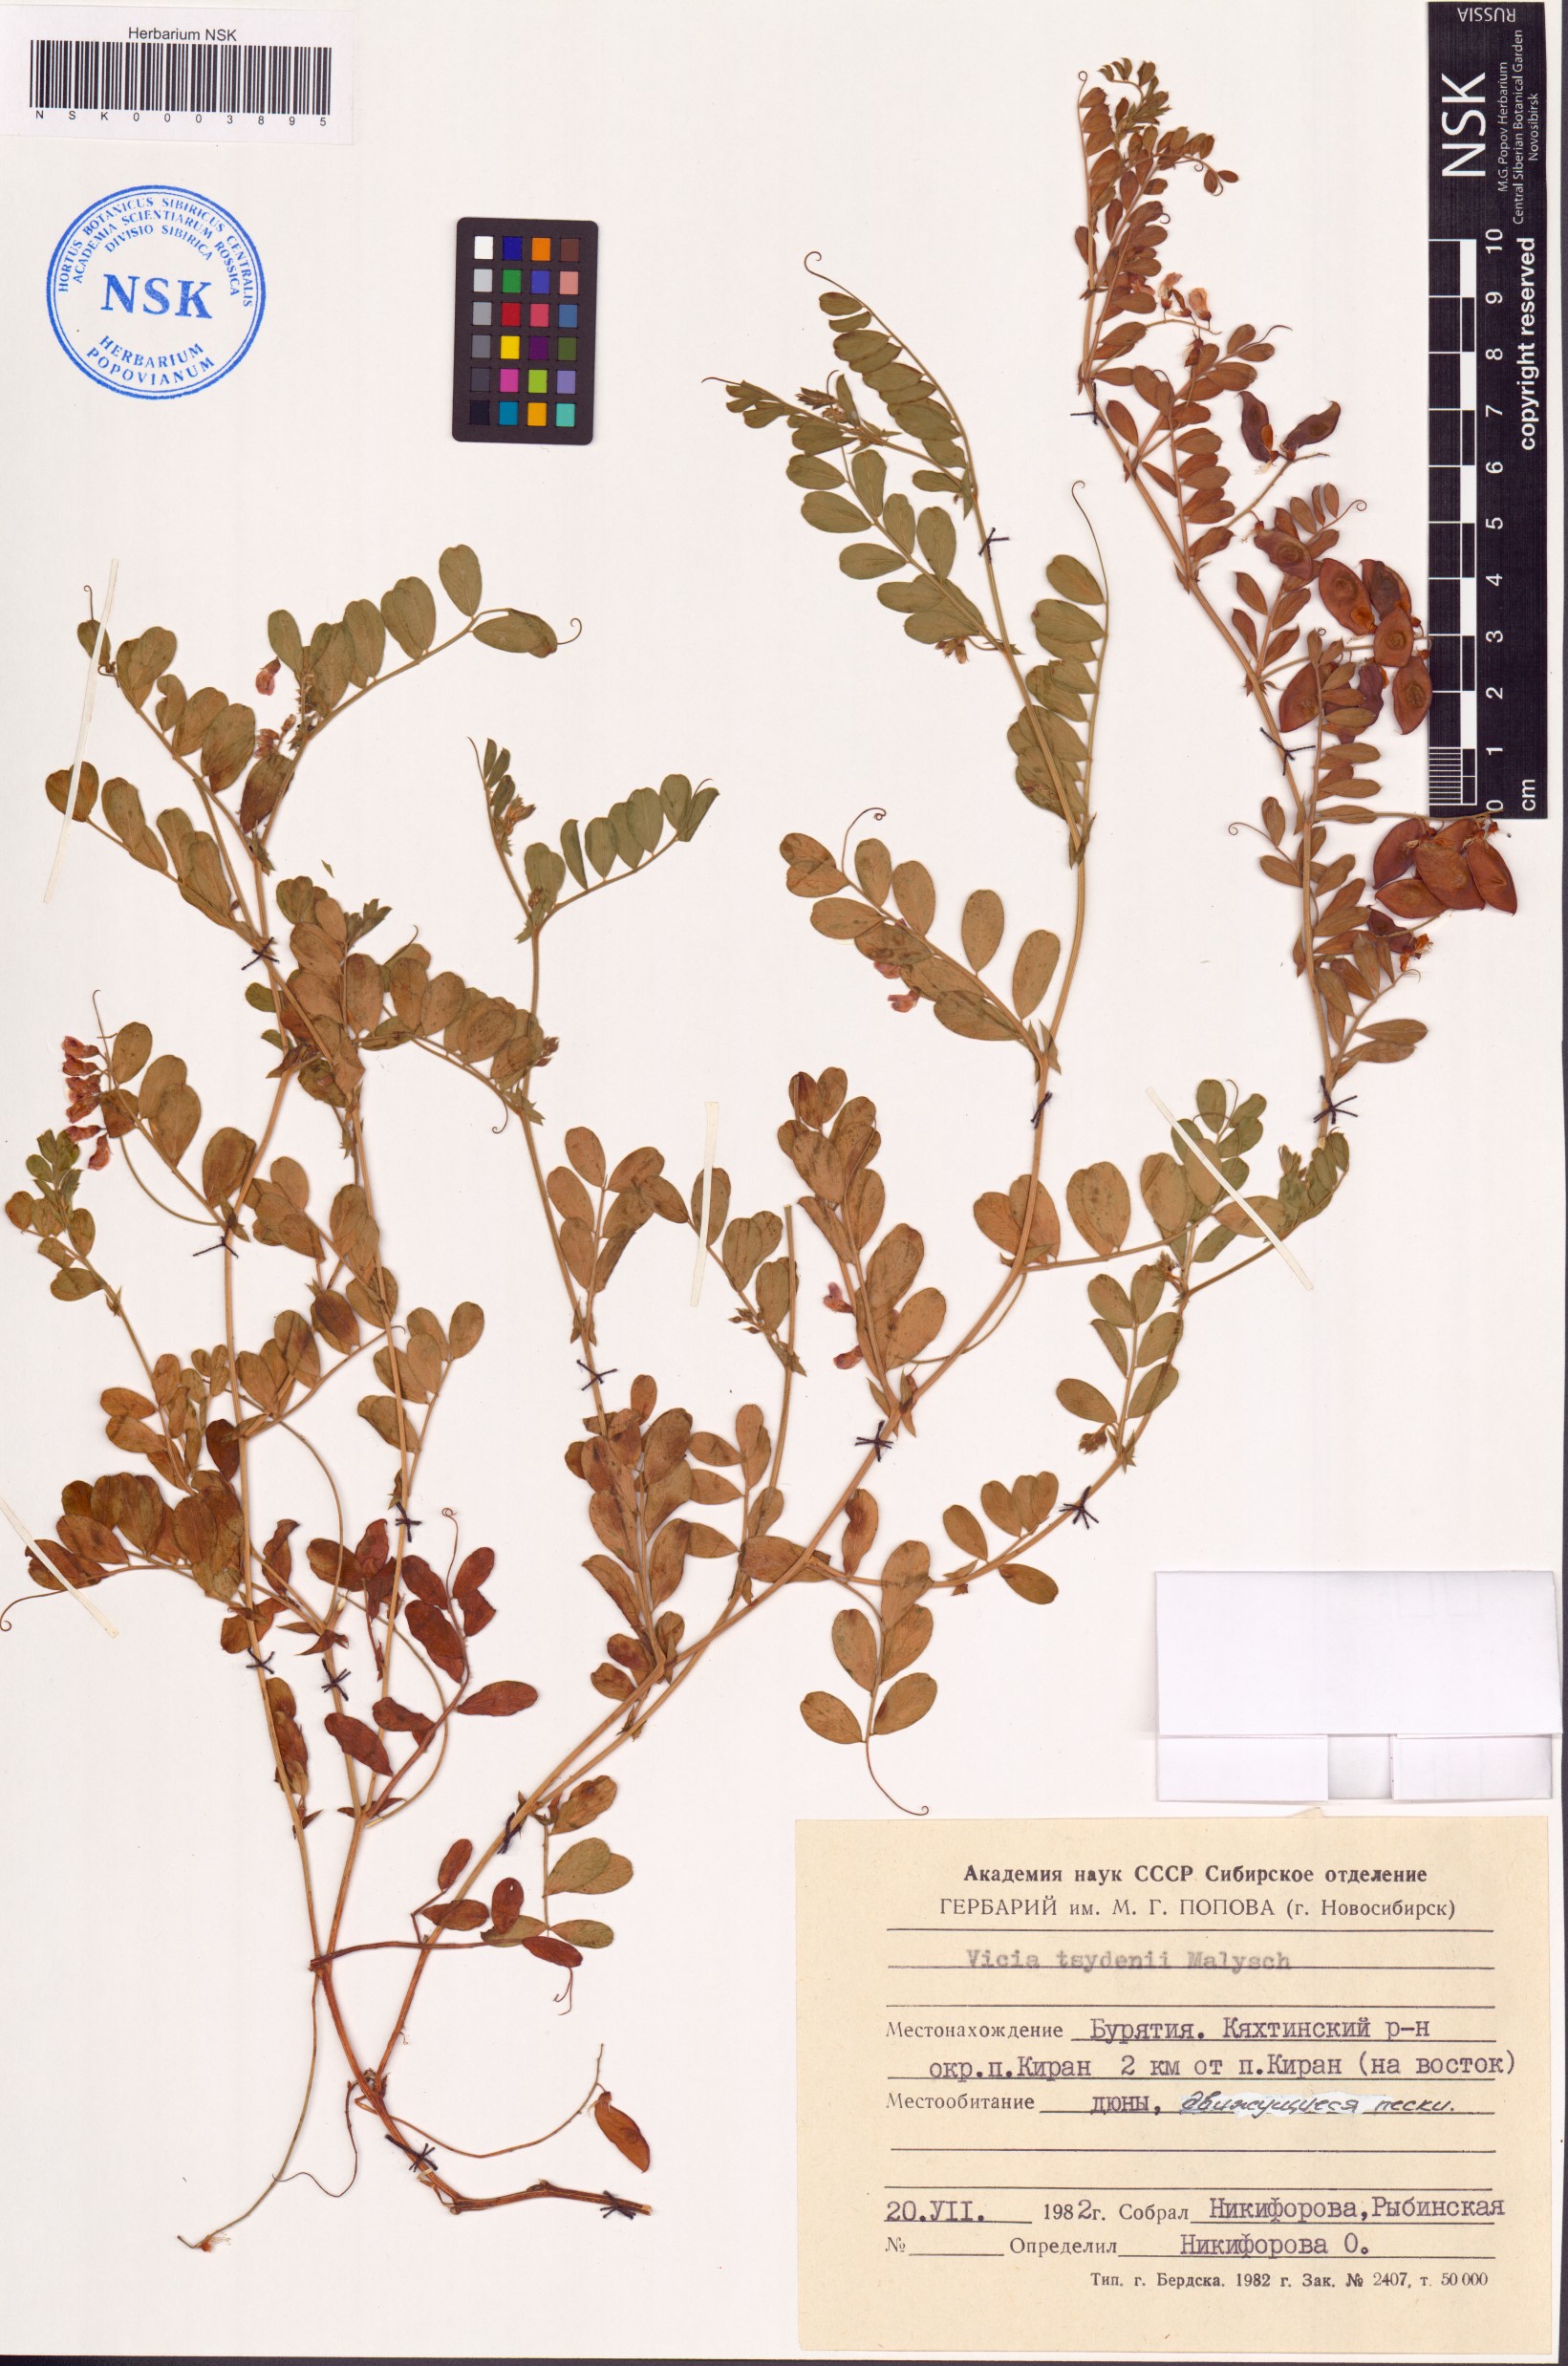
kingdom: Plantae
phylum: Tracheophyta
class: Magnoliopsida
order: Fabales
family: Fabaceae
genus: Vicia
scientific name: Vicia tsydenii
